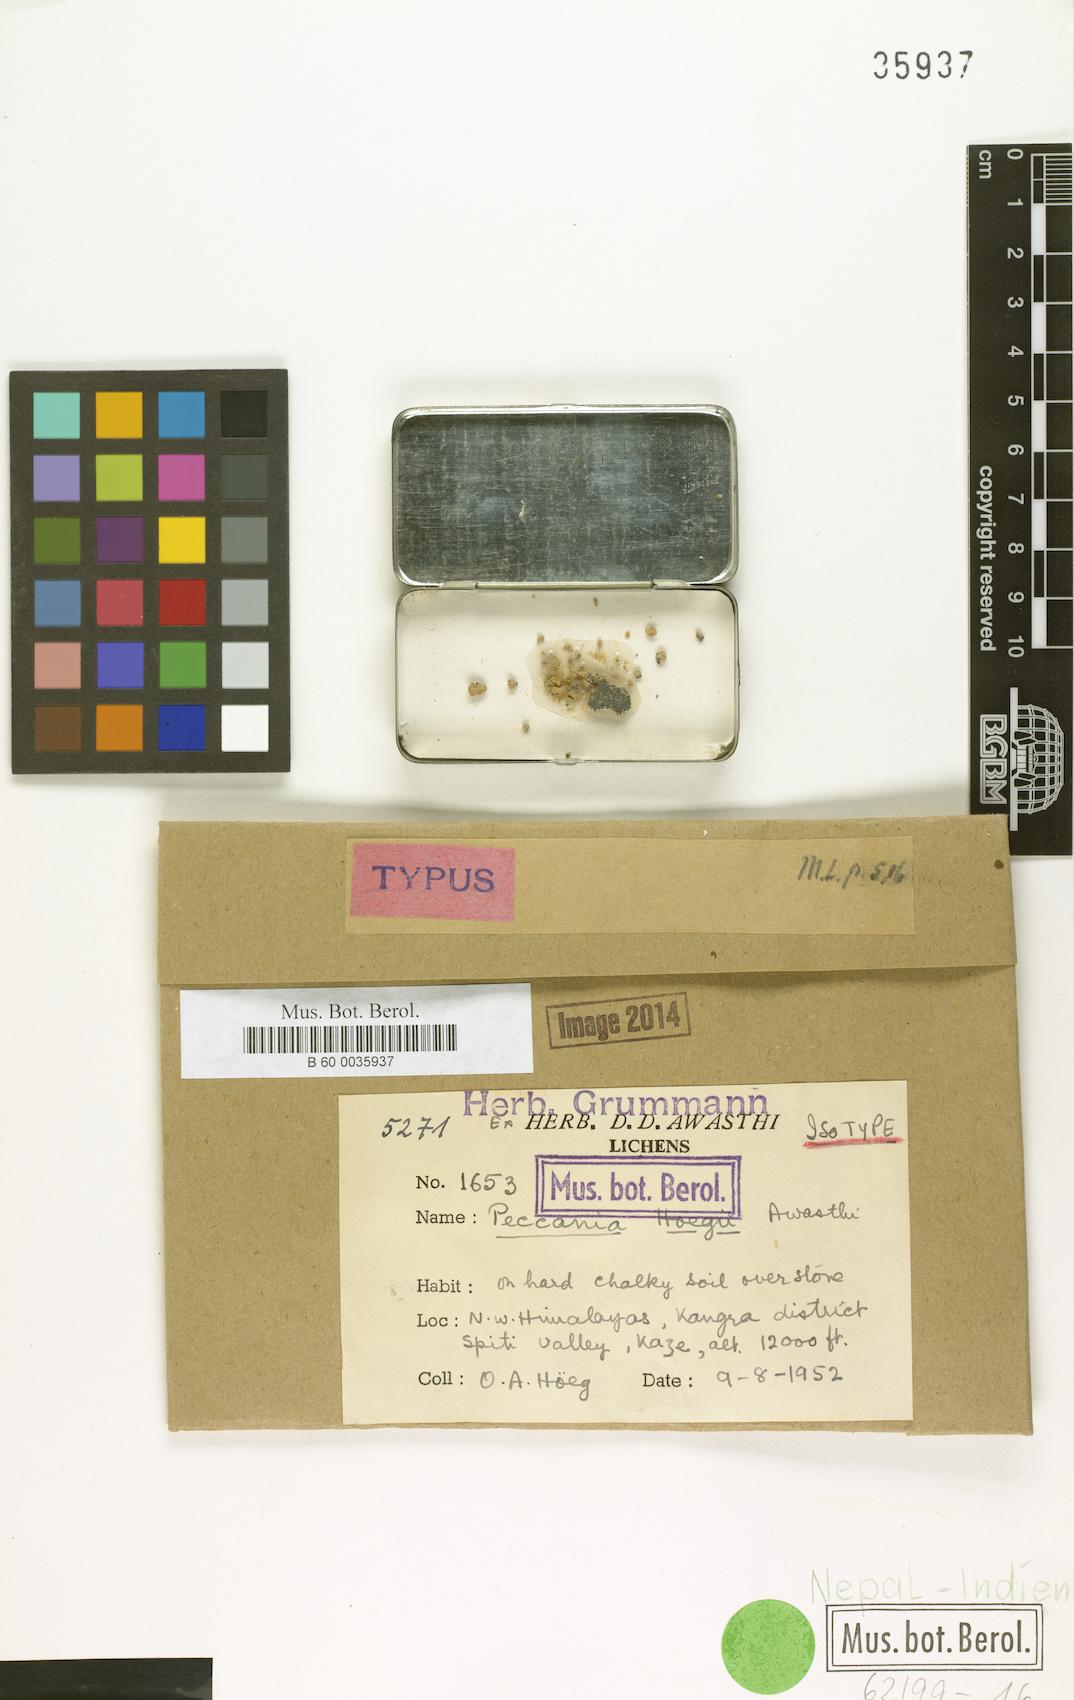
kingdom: Fungi
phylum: Ascomycota
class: Lichinomycetes
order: Lichinales
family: Lichinaceae
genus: Peccania
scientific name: Peccania hoegii
